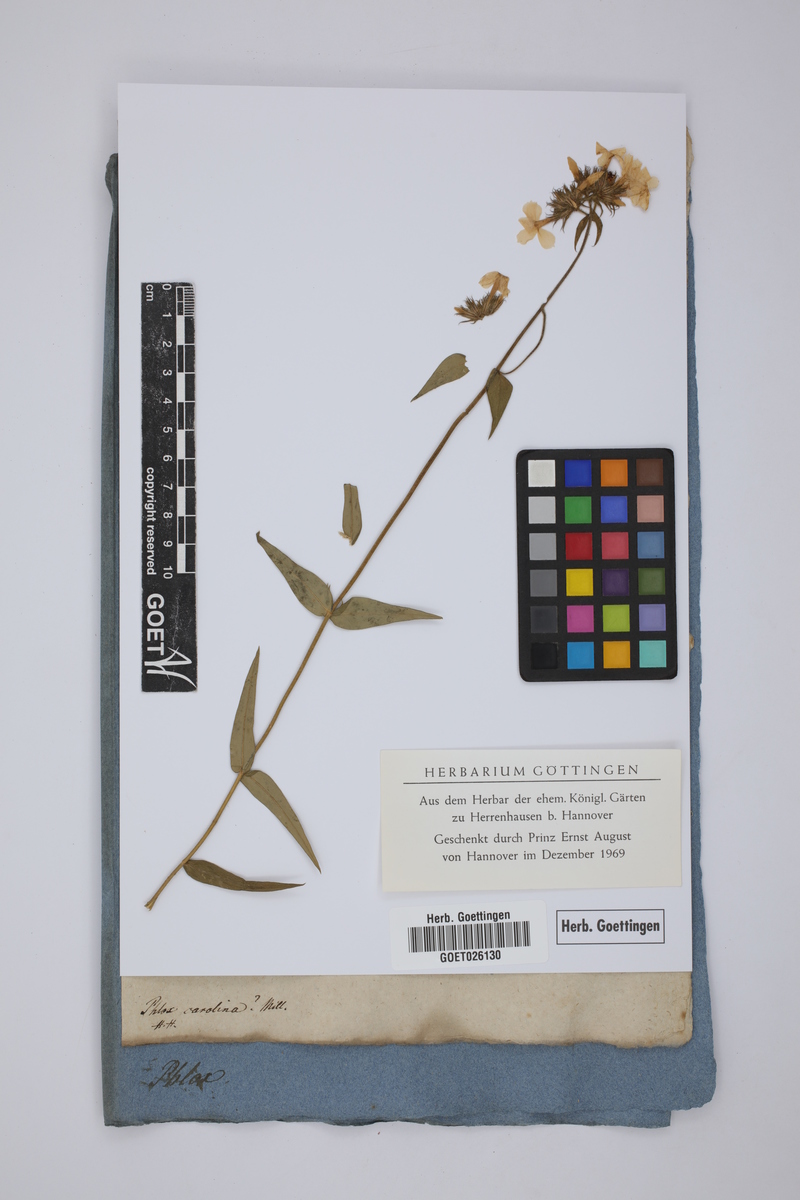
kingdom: Plantae
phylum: Tracheophyta
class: Magnoliopsida
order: Ericales
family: Polemoniaceae
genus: Phlox
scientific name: Phlox carolina
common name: Thick-leaf phlox
